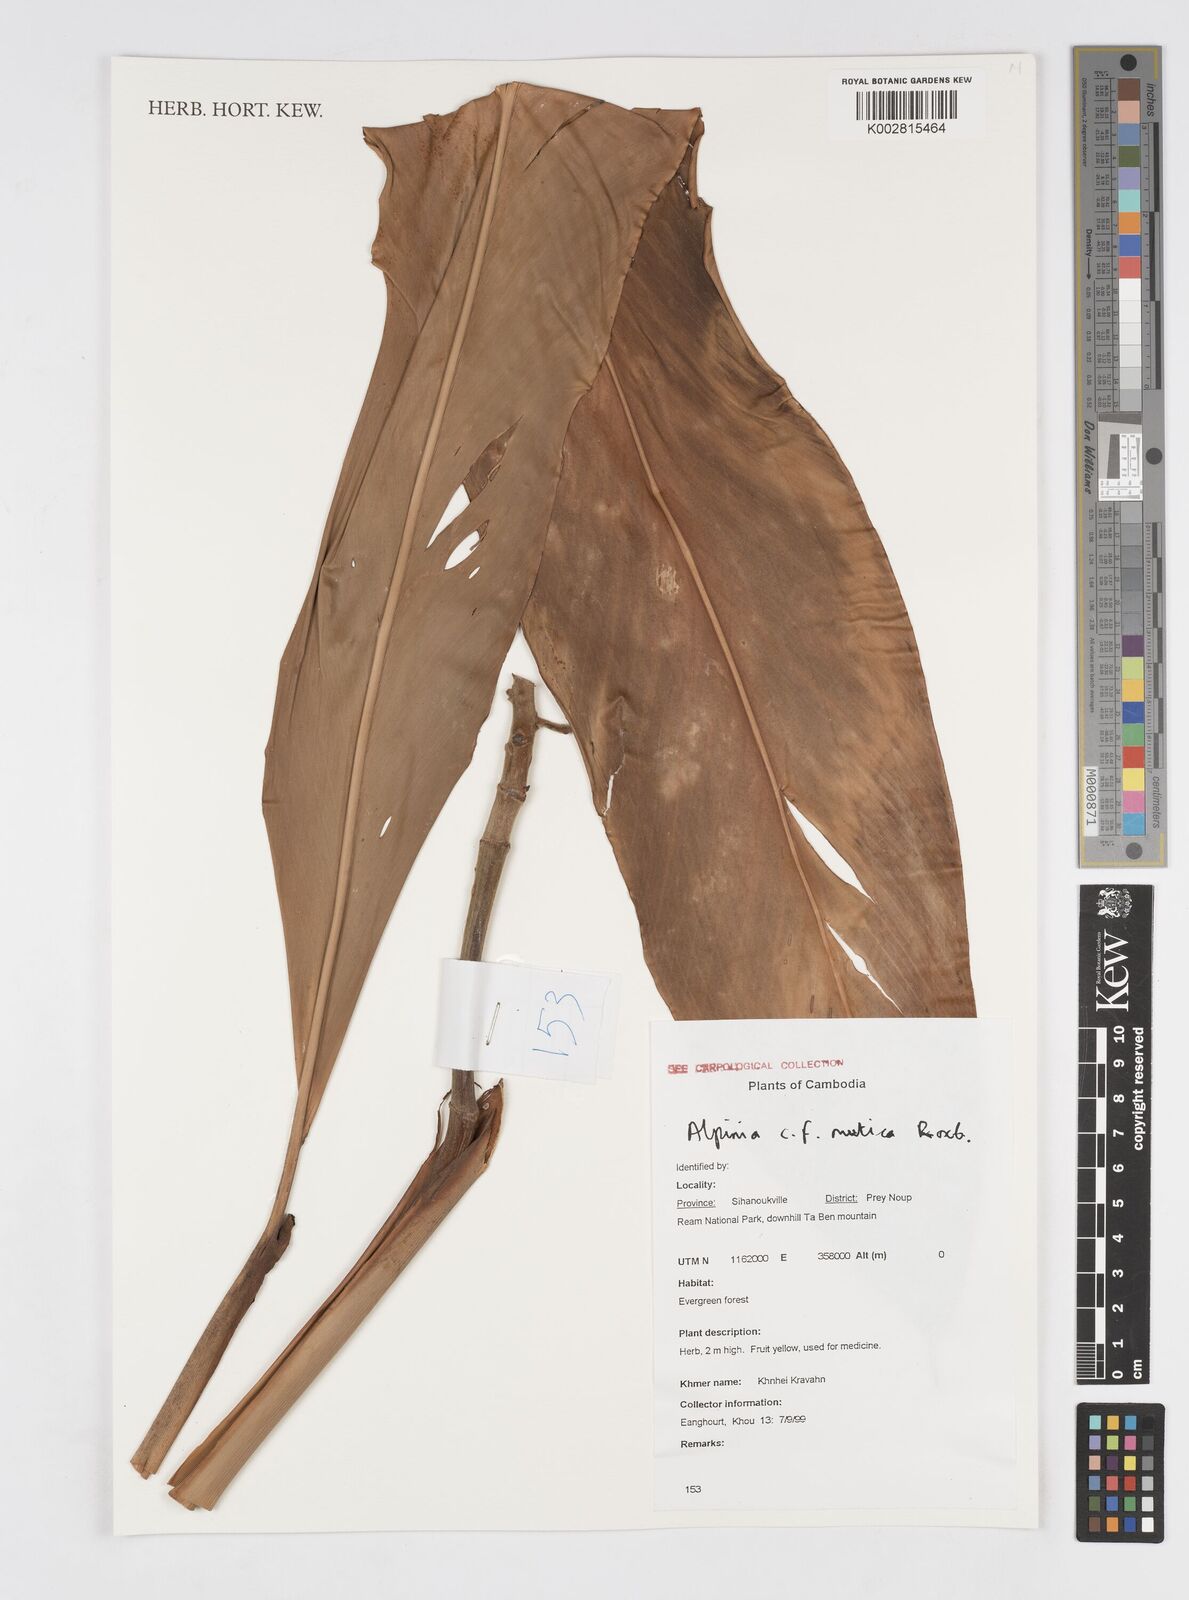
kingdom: Plantae
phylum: Tracheophyta
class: Liliopsida
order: Zingiberales
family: Zingiberaceae
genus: Alpinia
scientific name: Alpinia mutica
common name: Small shell ginger
